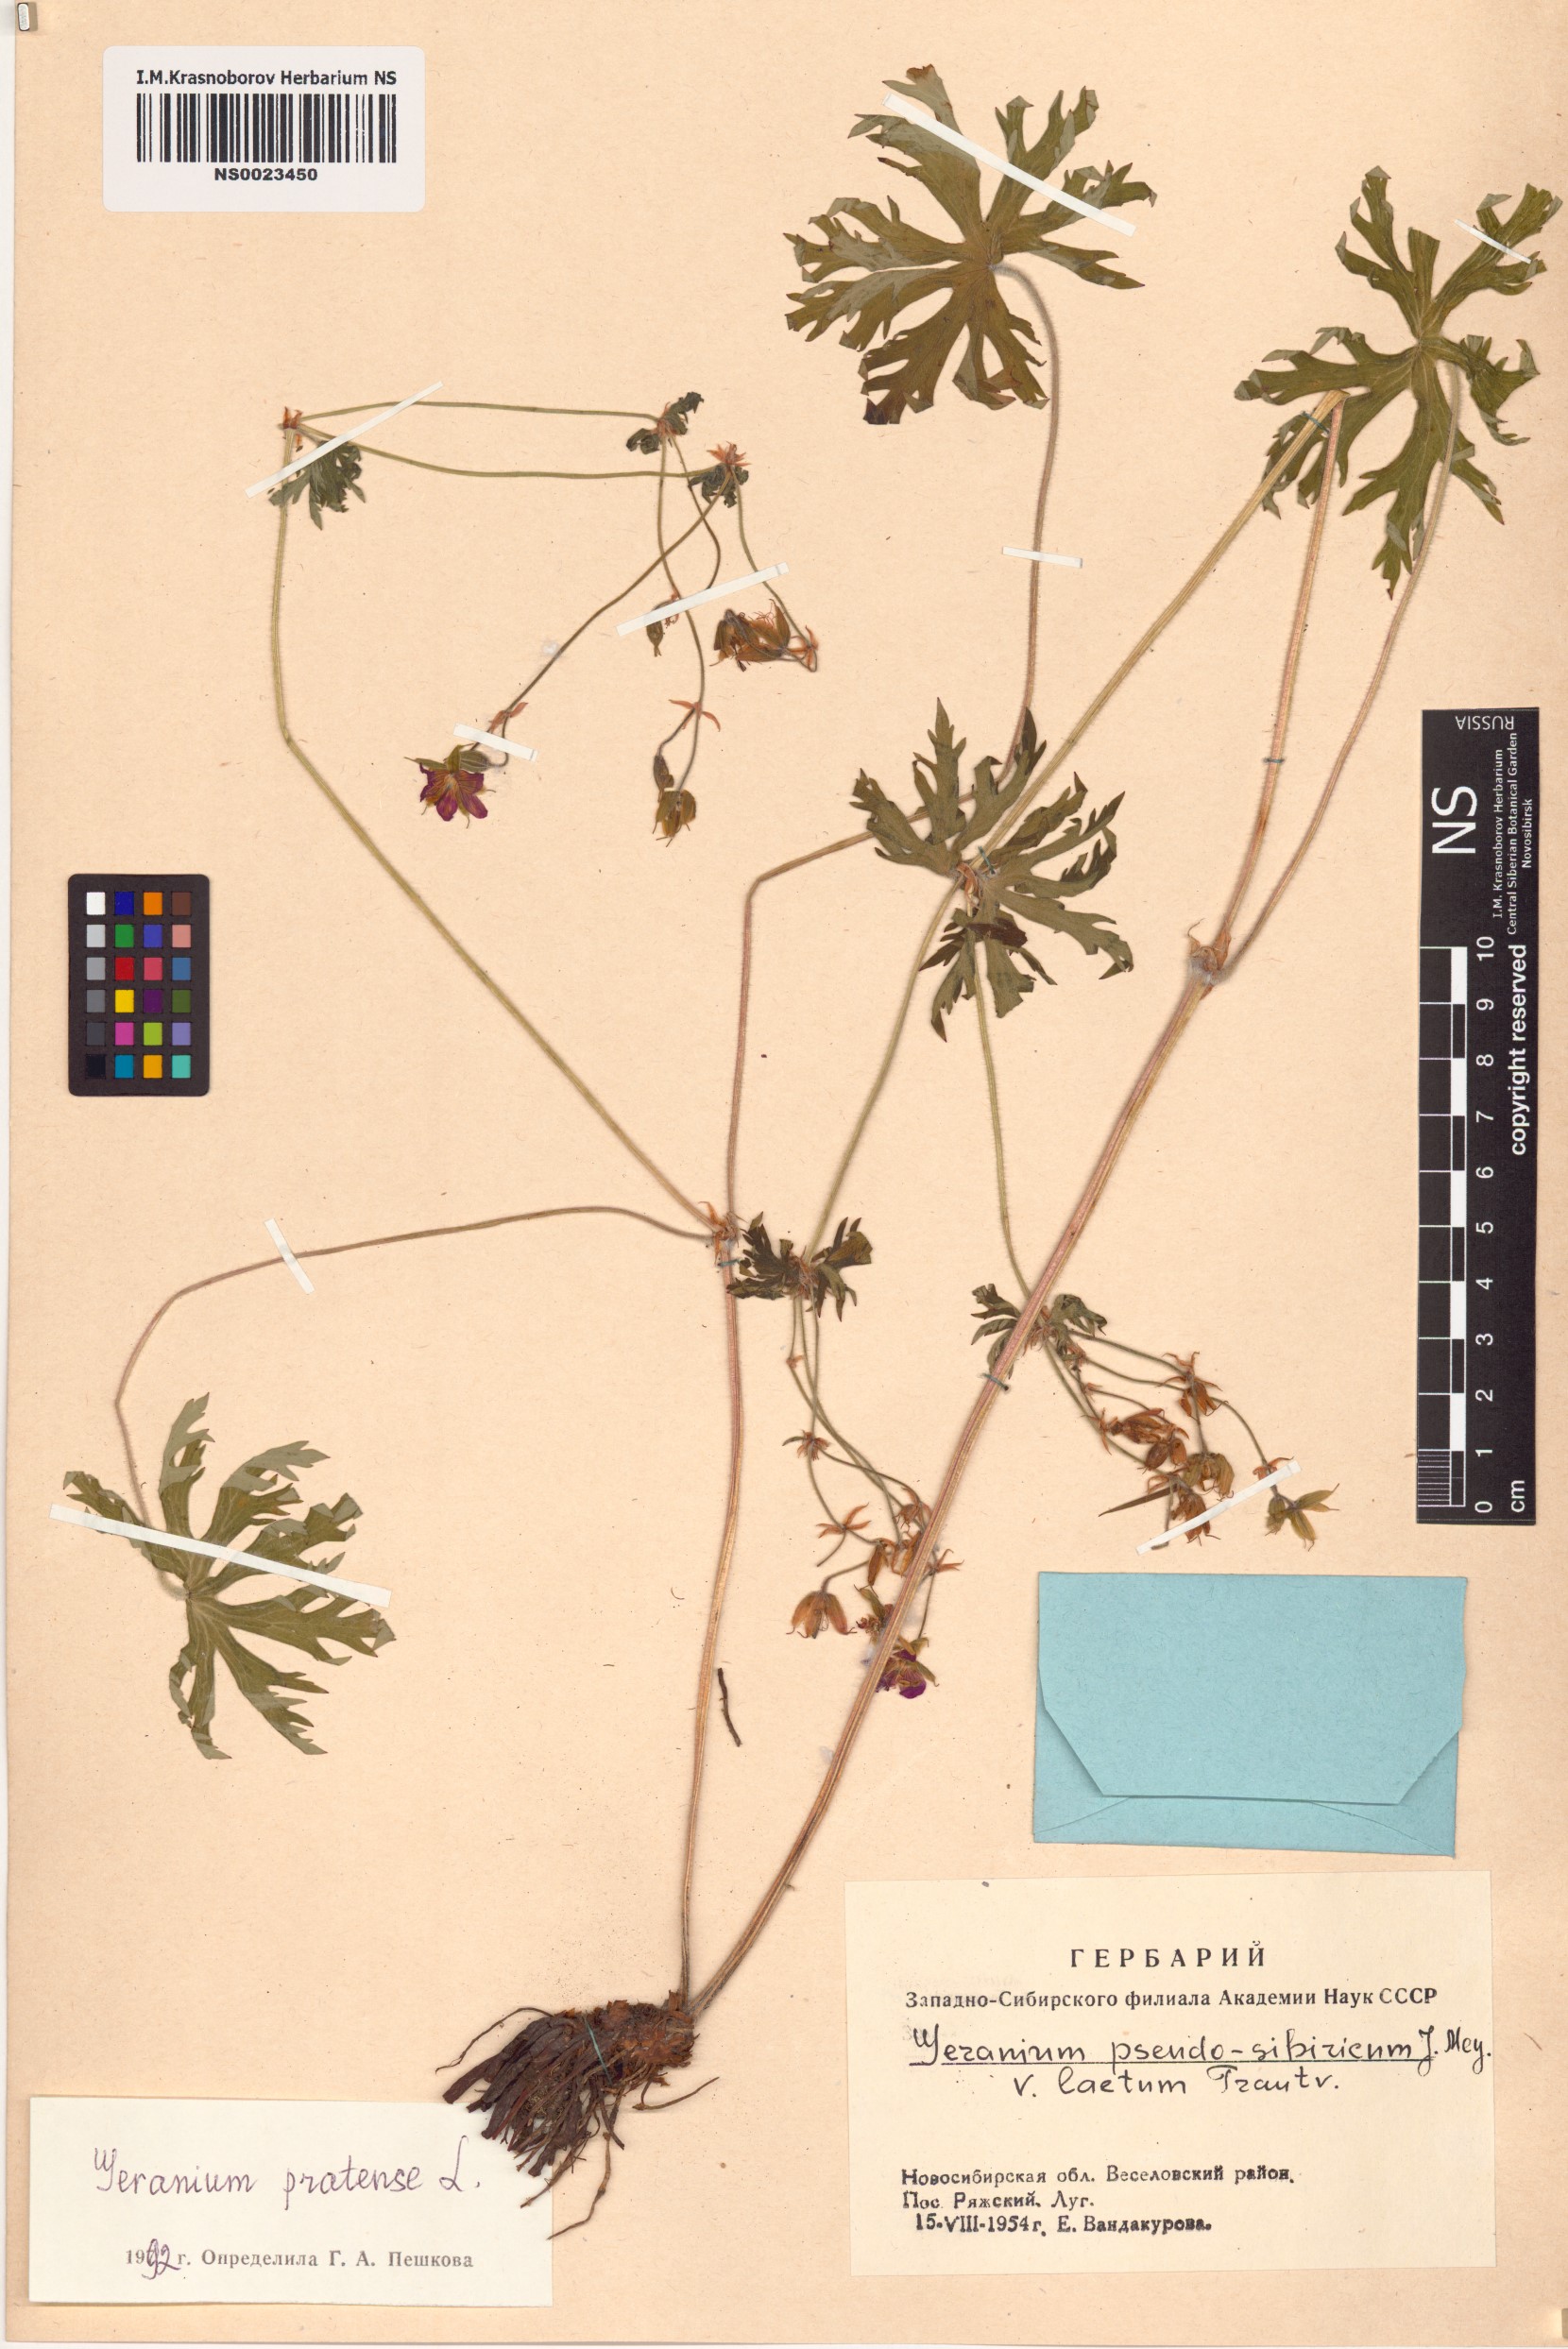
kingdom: Plantae
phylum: Tracheophyta
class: Magnoliopsida
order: Geraniales
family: Geraniaceae
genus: Geranium
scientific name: Geranium pratense
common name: Meadow crane's-bill
